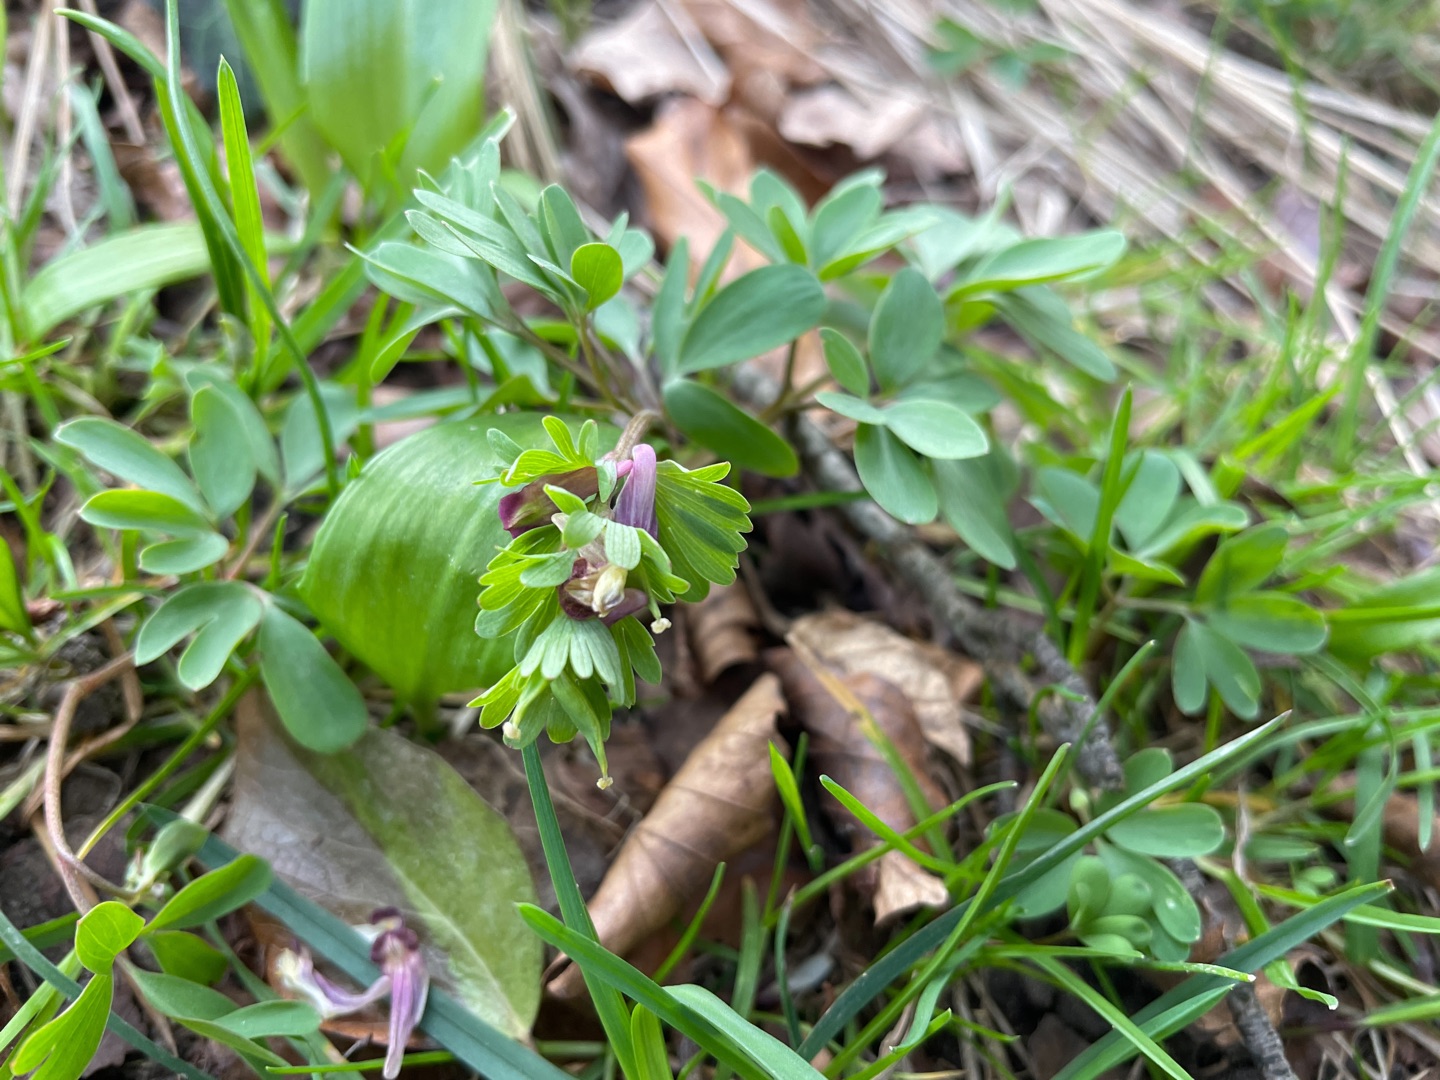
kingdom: Plantae
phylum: Tracheophyta
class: Magnoliopsida
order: Ranunculales
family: Papaveraceae
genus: Corydalis
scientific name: Corydalis pumila
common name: Finger-lærkespore
